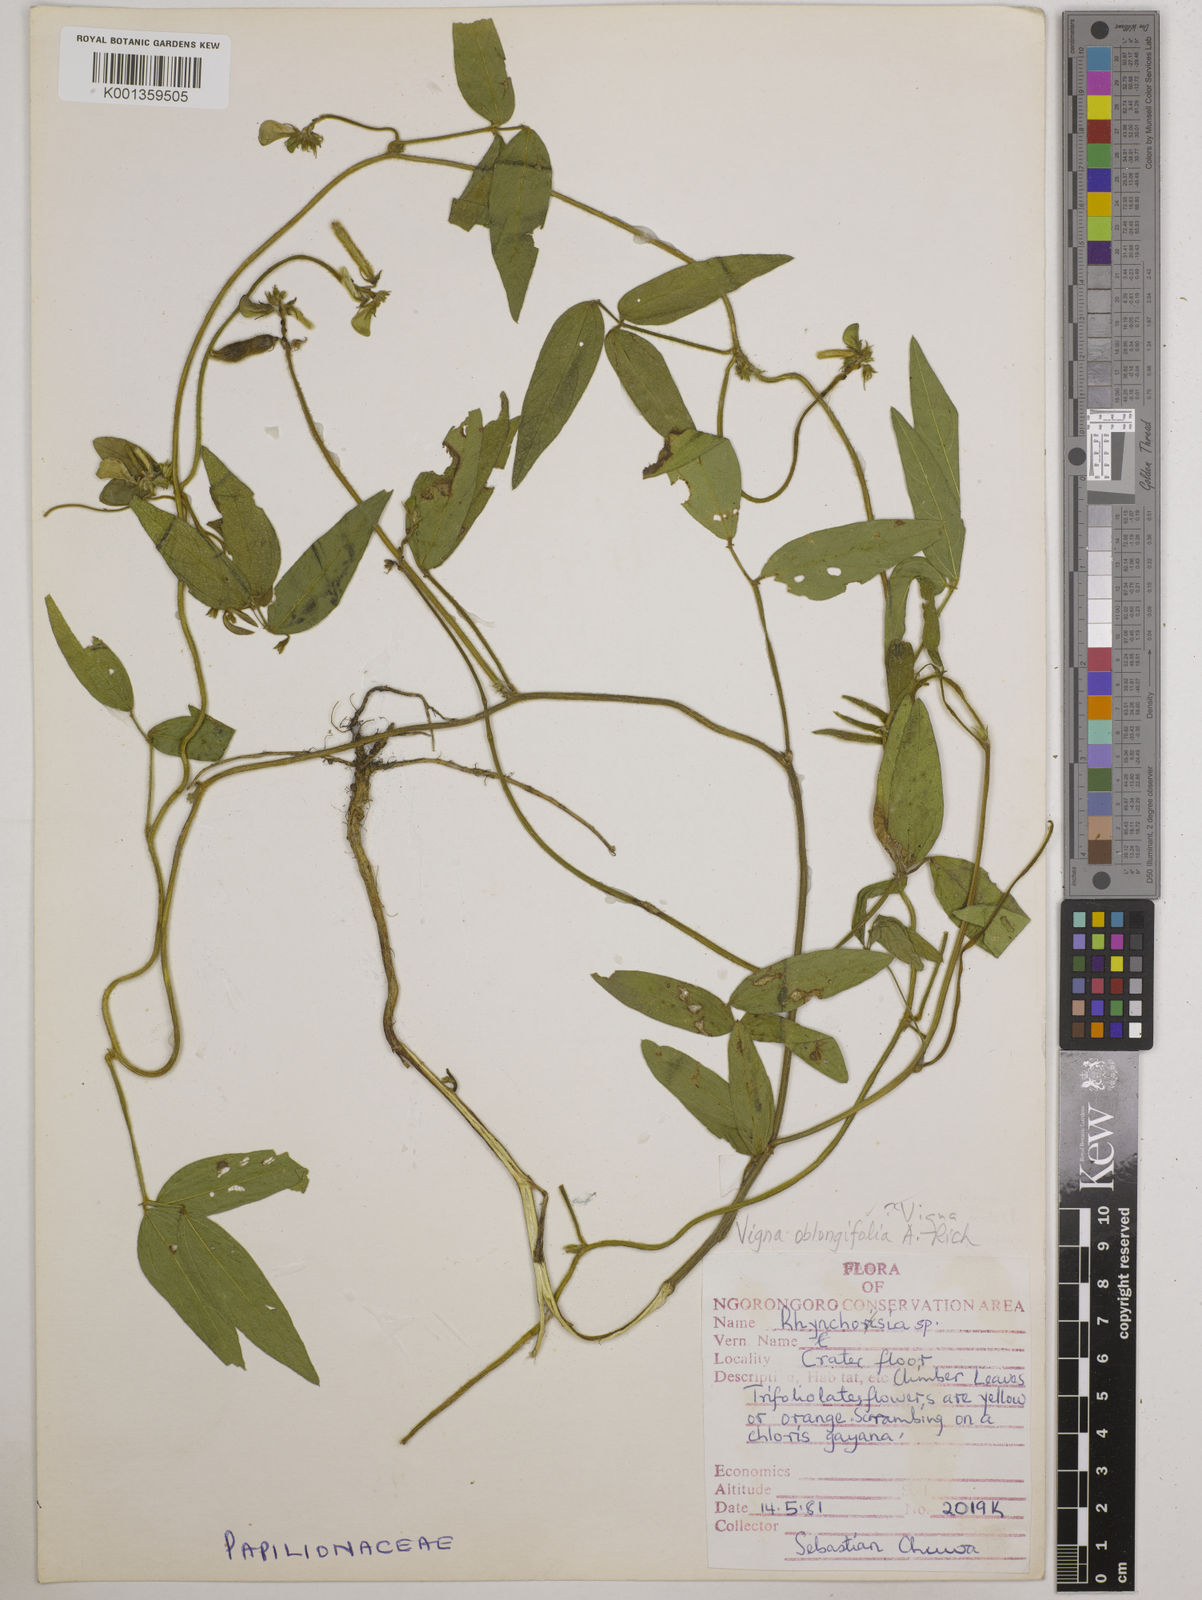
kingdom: Plantae
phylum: Tracheophyta
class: Magnoliopsida
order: Fabales
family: Fabaceae
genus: Vigna
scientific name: Vigna oblongifolia
